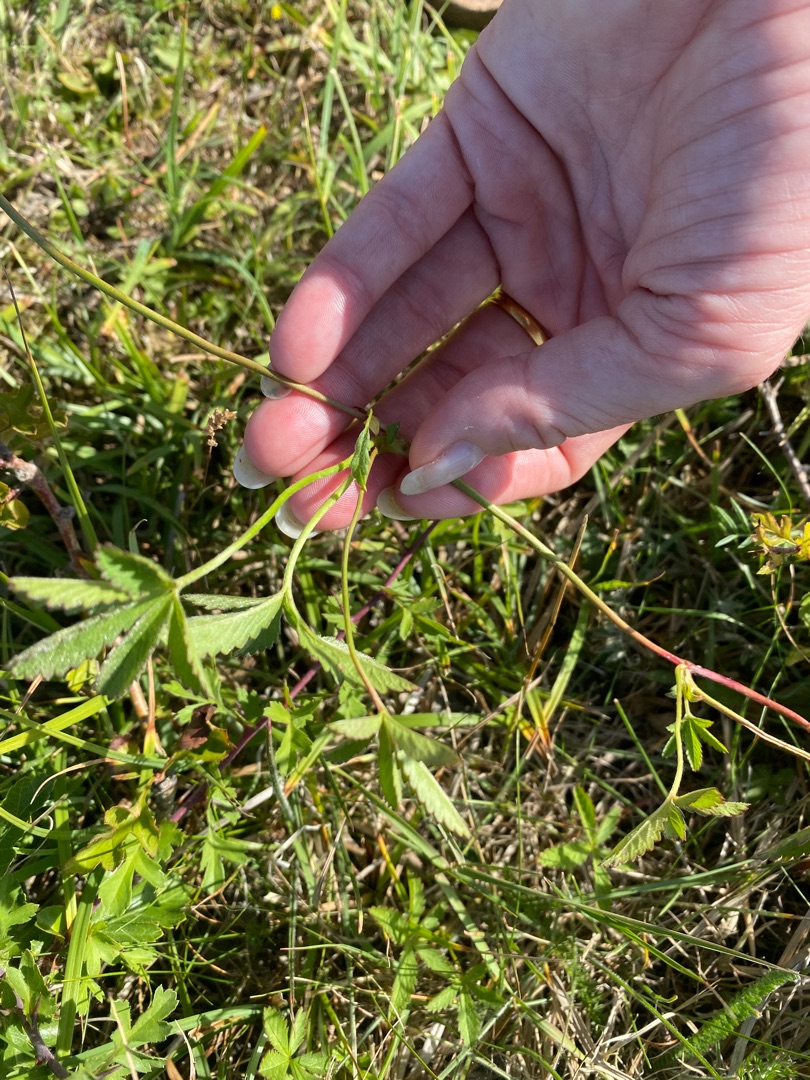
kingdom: Plantae
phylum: Tracheophyta
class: Magnoliopsida
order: Rosales
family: Rosaceae
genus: Potentilla
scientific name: Potentilla reptans
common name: Krybende potentil
